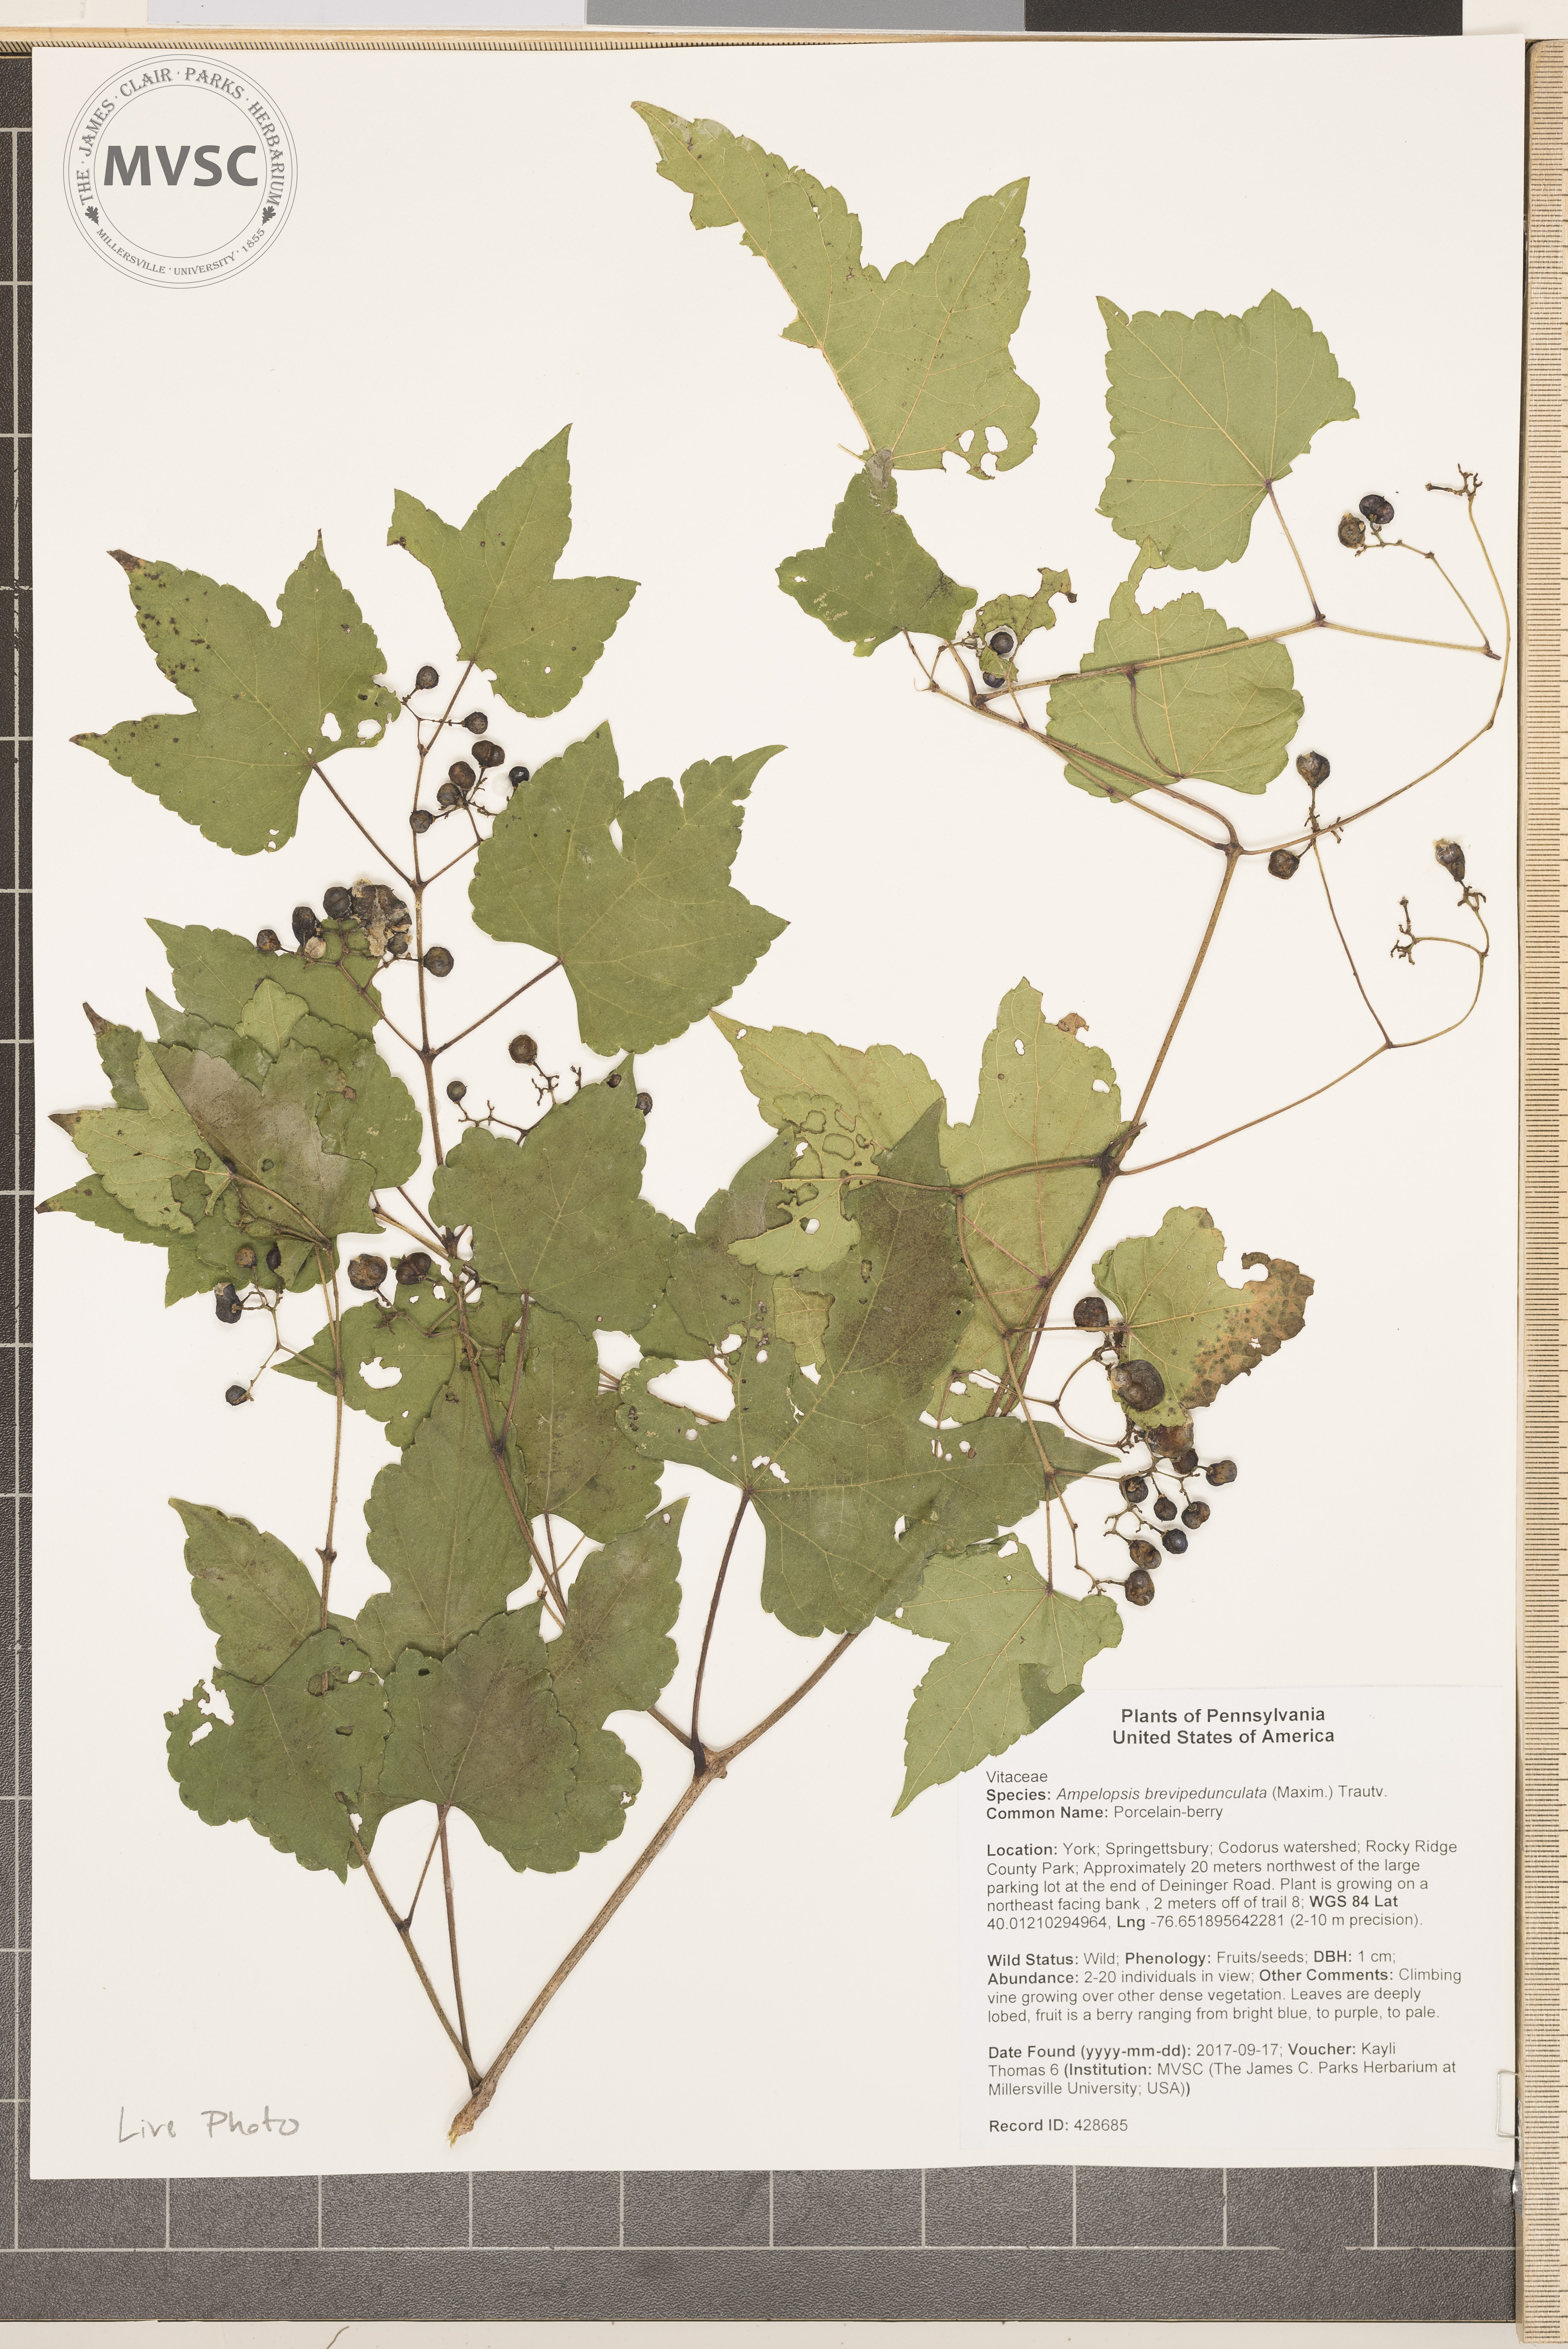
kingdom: Plantae
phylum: Tracheophyta
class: Magnoliopsida
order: Vitales
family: Vitaceae
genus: Ampelopsis
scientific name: Ampelopsis glandulosa
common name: Porcelain-berry
